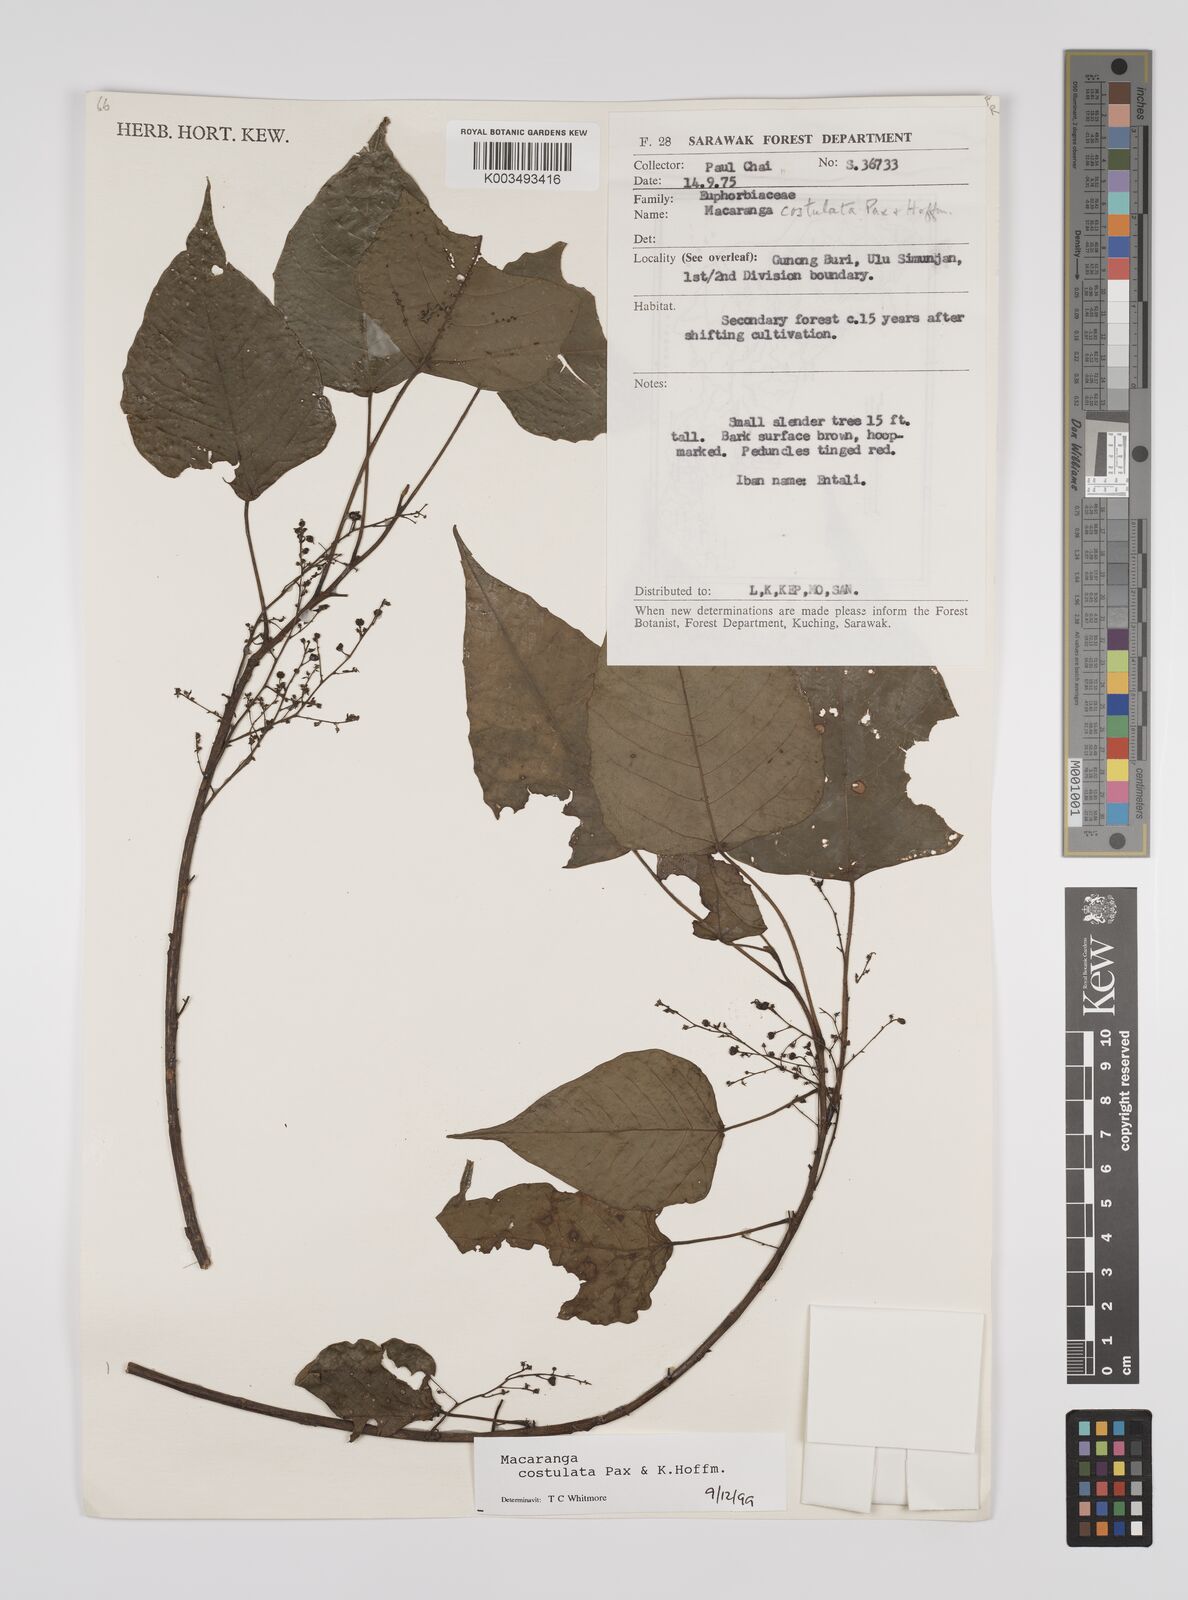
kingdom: Plantae
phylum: Tracheophyta
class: Magnoliopsida
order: Malpighiales
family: Euphorbiaceae
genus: Macaranga
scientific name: Macaranga costulata
